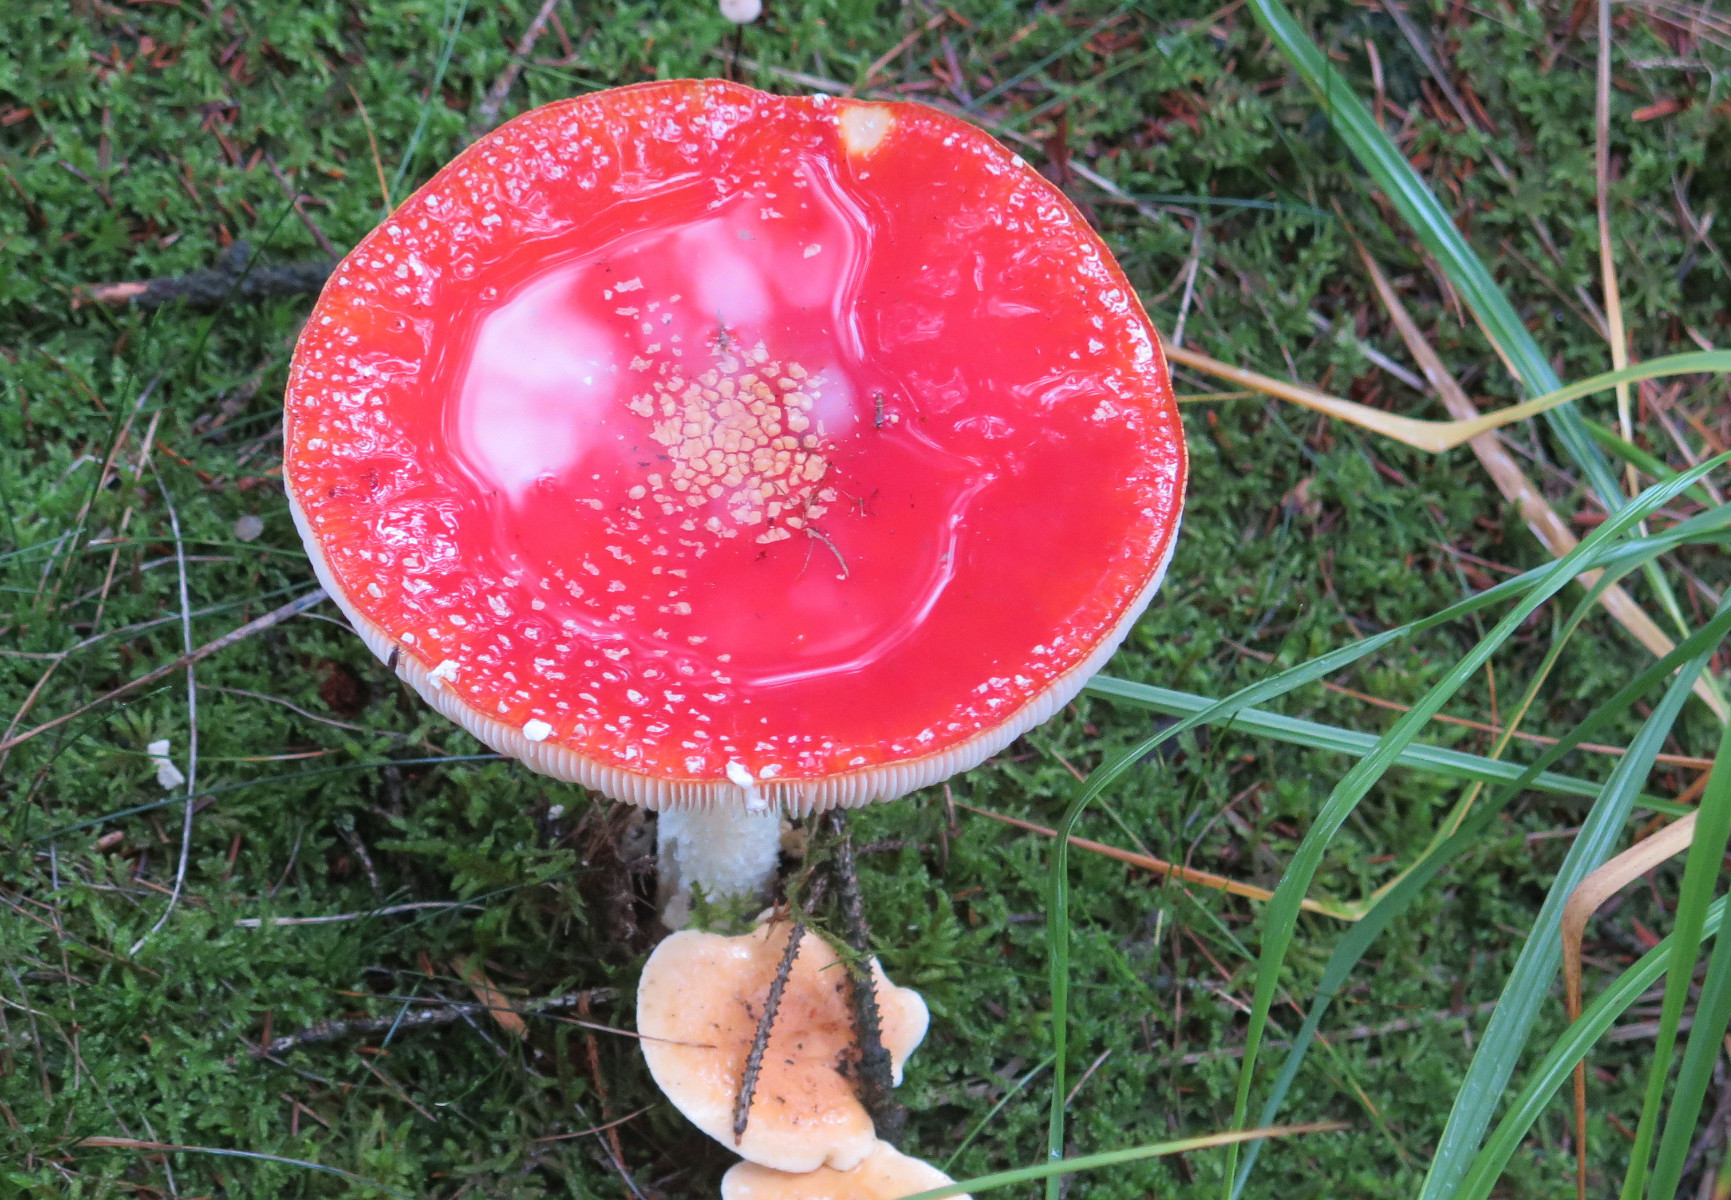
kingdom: Fungi
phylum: Basidiomycota
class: Agaricomycetes
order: Agaricales
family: Amanitaceae
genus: Amanita
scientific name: Amanita muscaria
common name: rød fluesvamp
